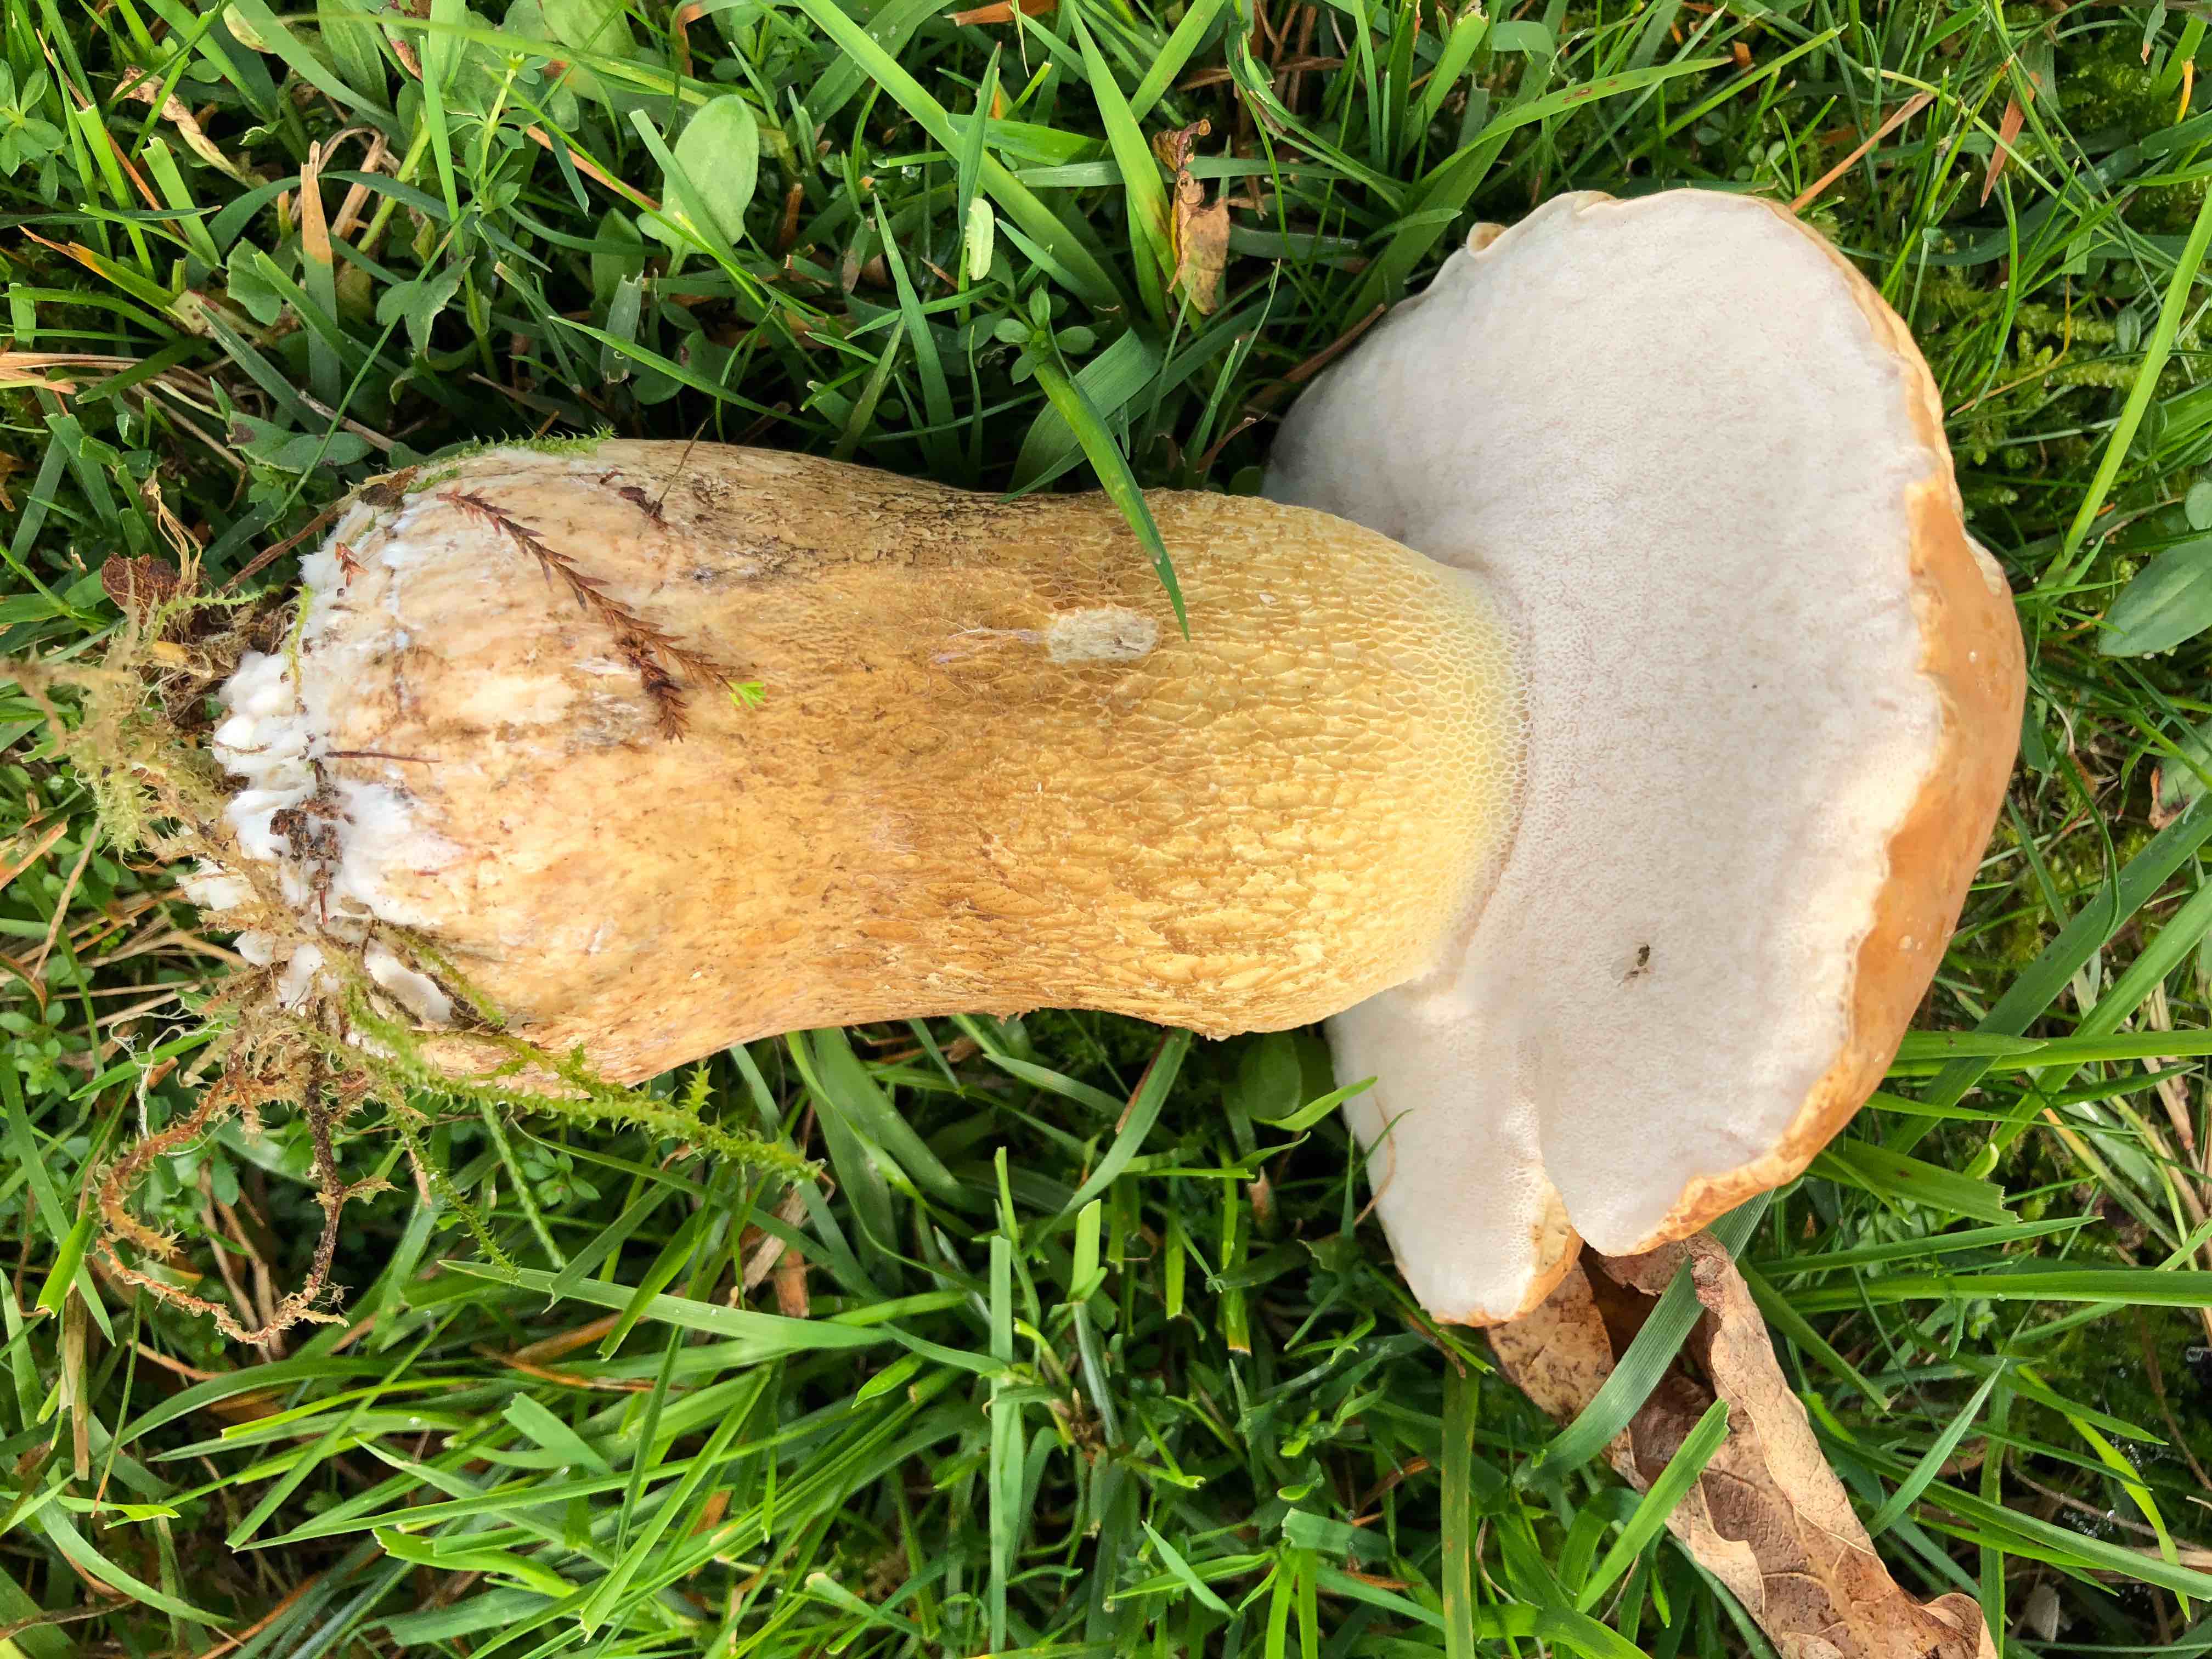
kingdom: Fungi
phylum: Basidiomycota
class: Agaricomycetes
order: Boletales
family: Boletaceae
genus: Tylopilus
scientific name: Tylopilus felleus
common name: galderørhat
